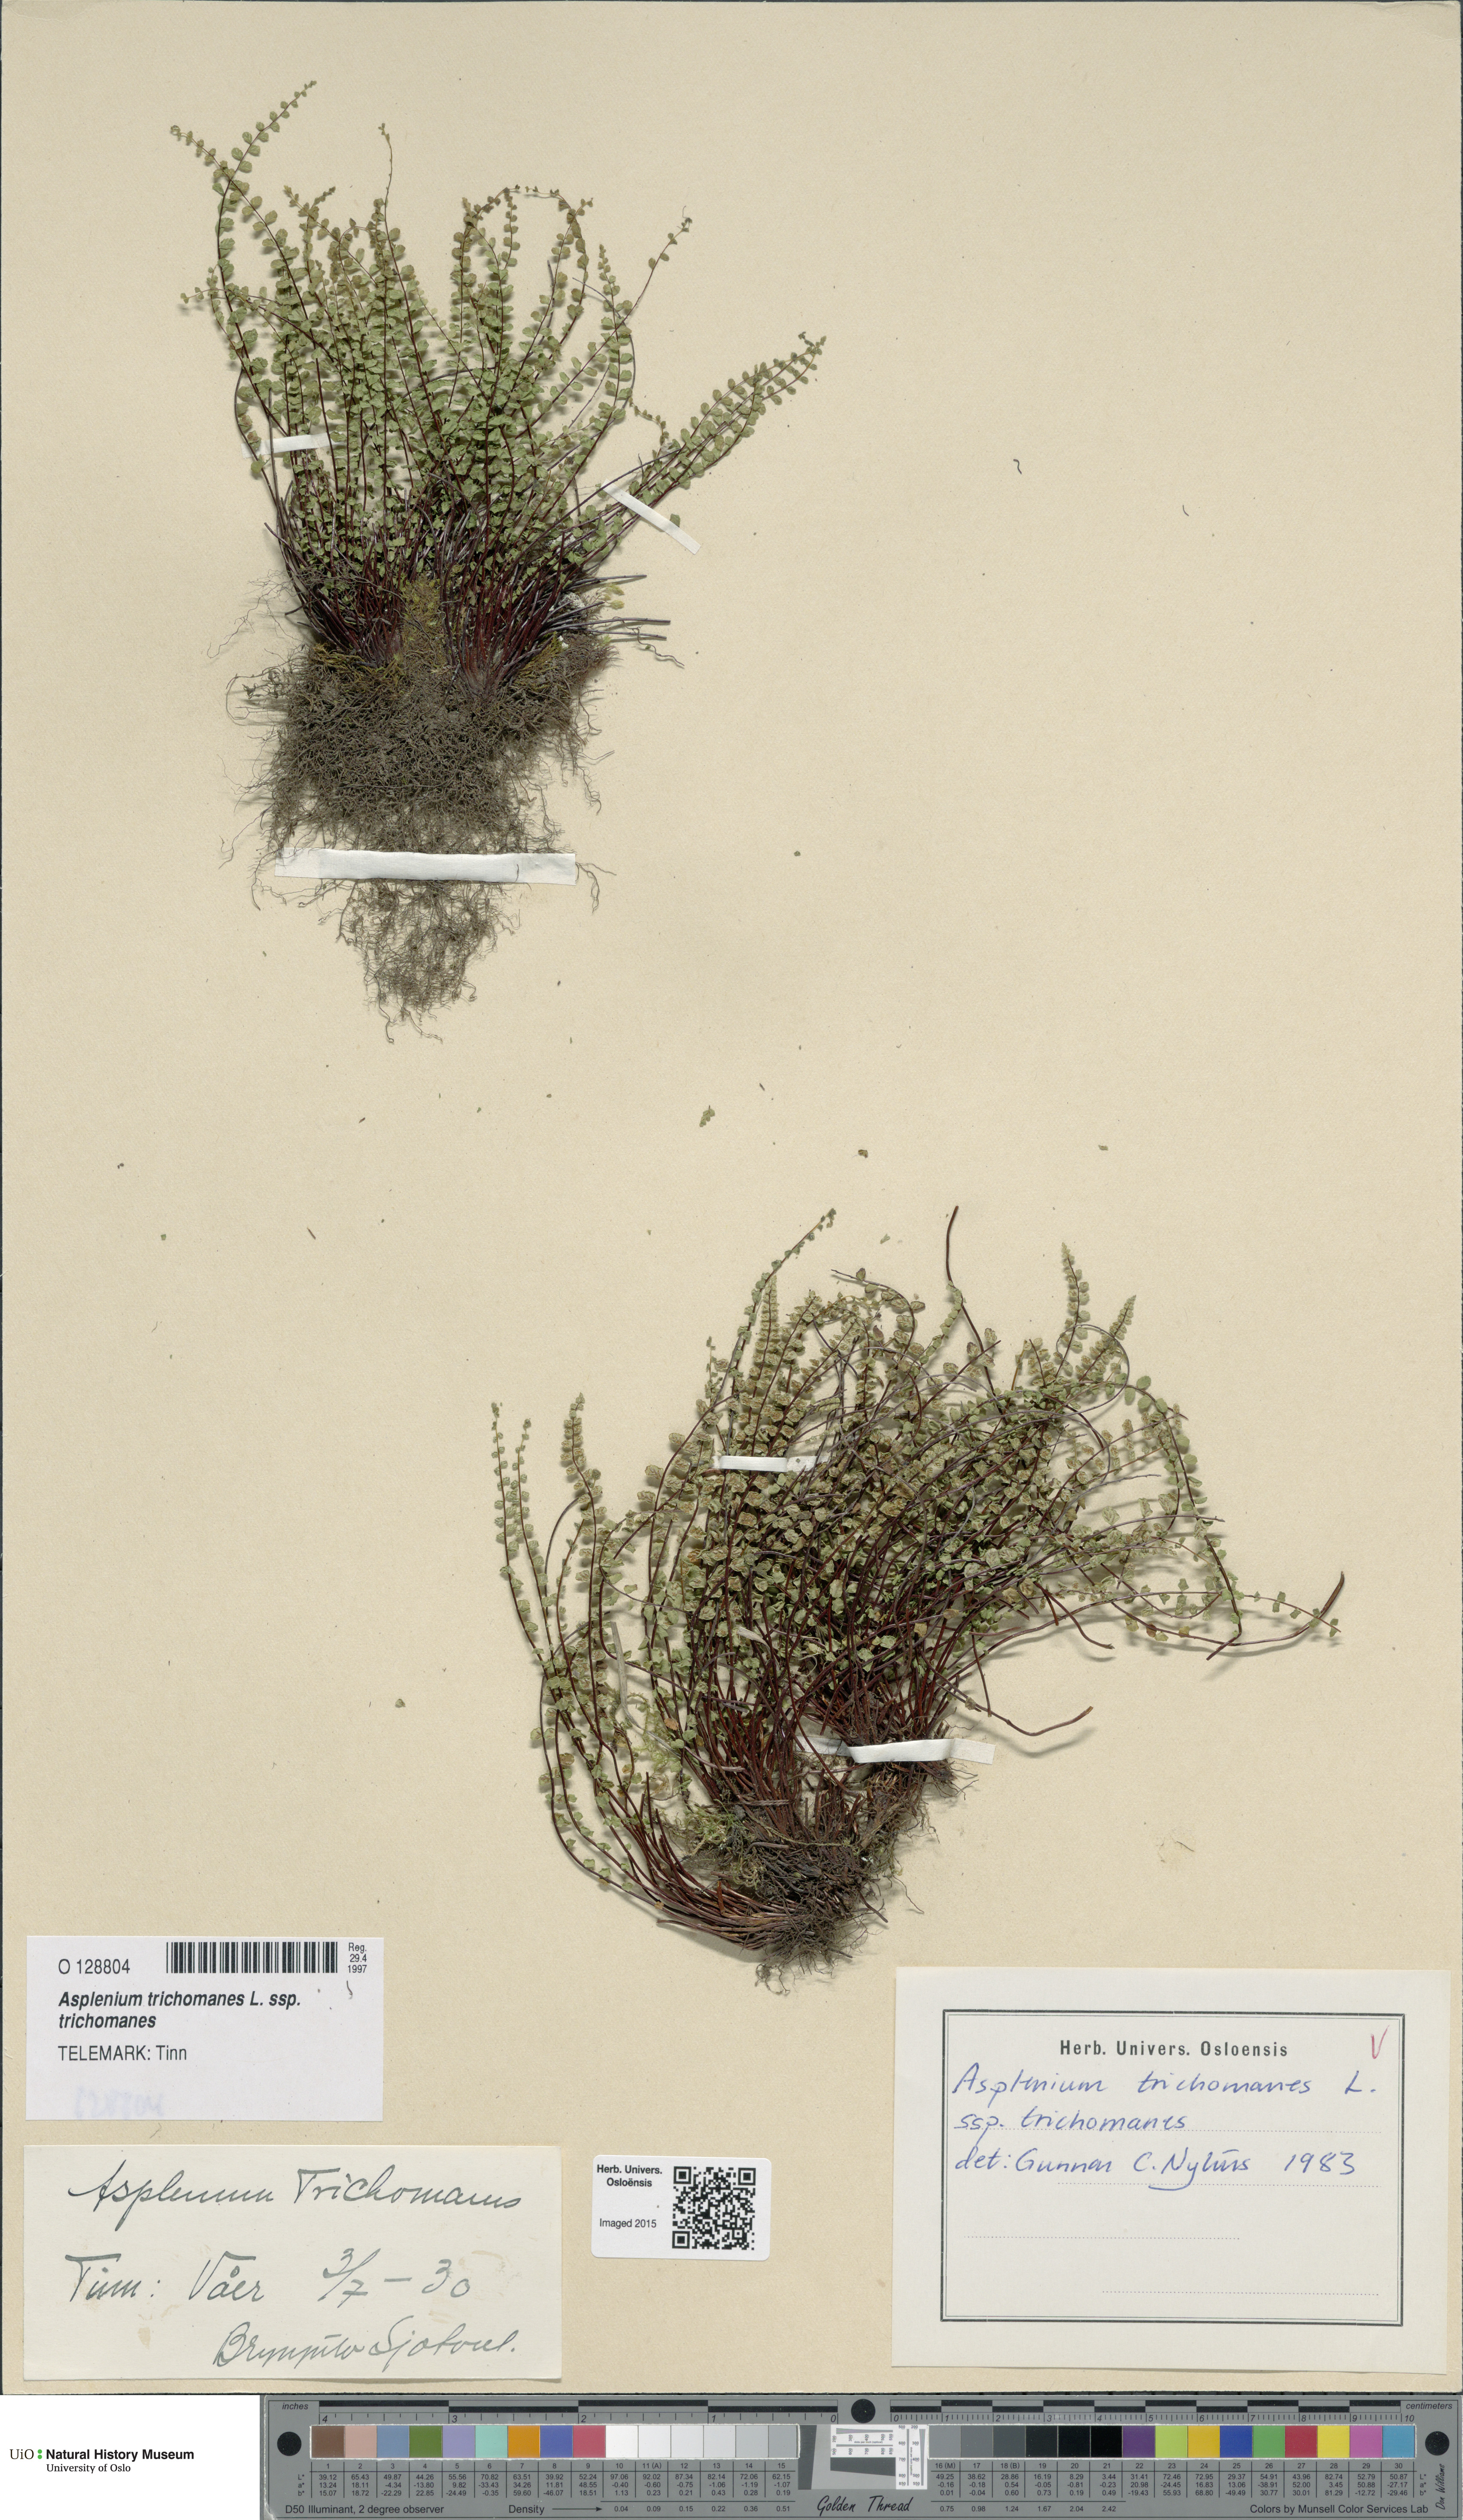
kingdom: Plantae
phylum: Tracheophyta
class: Polypodiopsida
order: Polypodiales
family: Aspleniaceae
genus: Asplenium
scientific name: Asplenium trichomanes
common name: Maidenhair spleenwort
